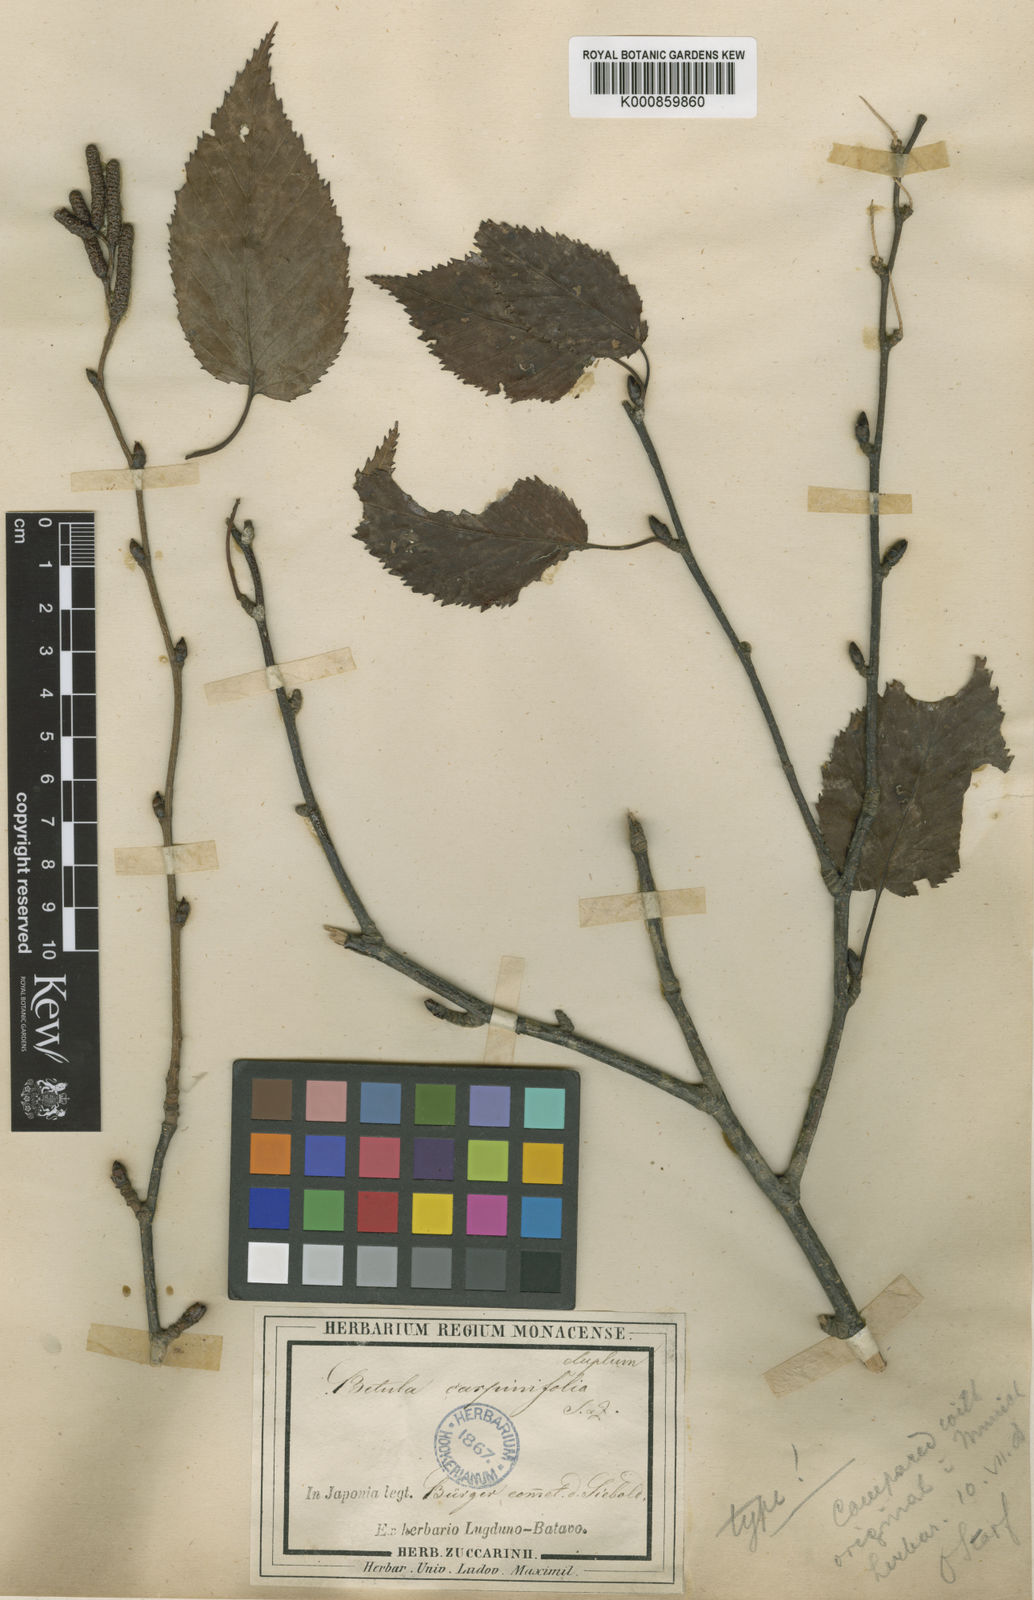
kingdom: Plantae
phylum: Tracheophyta
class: Magnoliopsida
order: Fagales
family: Betulaceae
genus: Betula
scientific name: Betula grossa
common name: Japanese cherry birch
